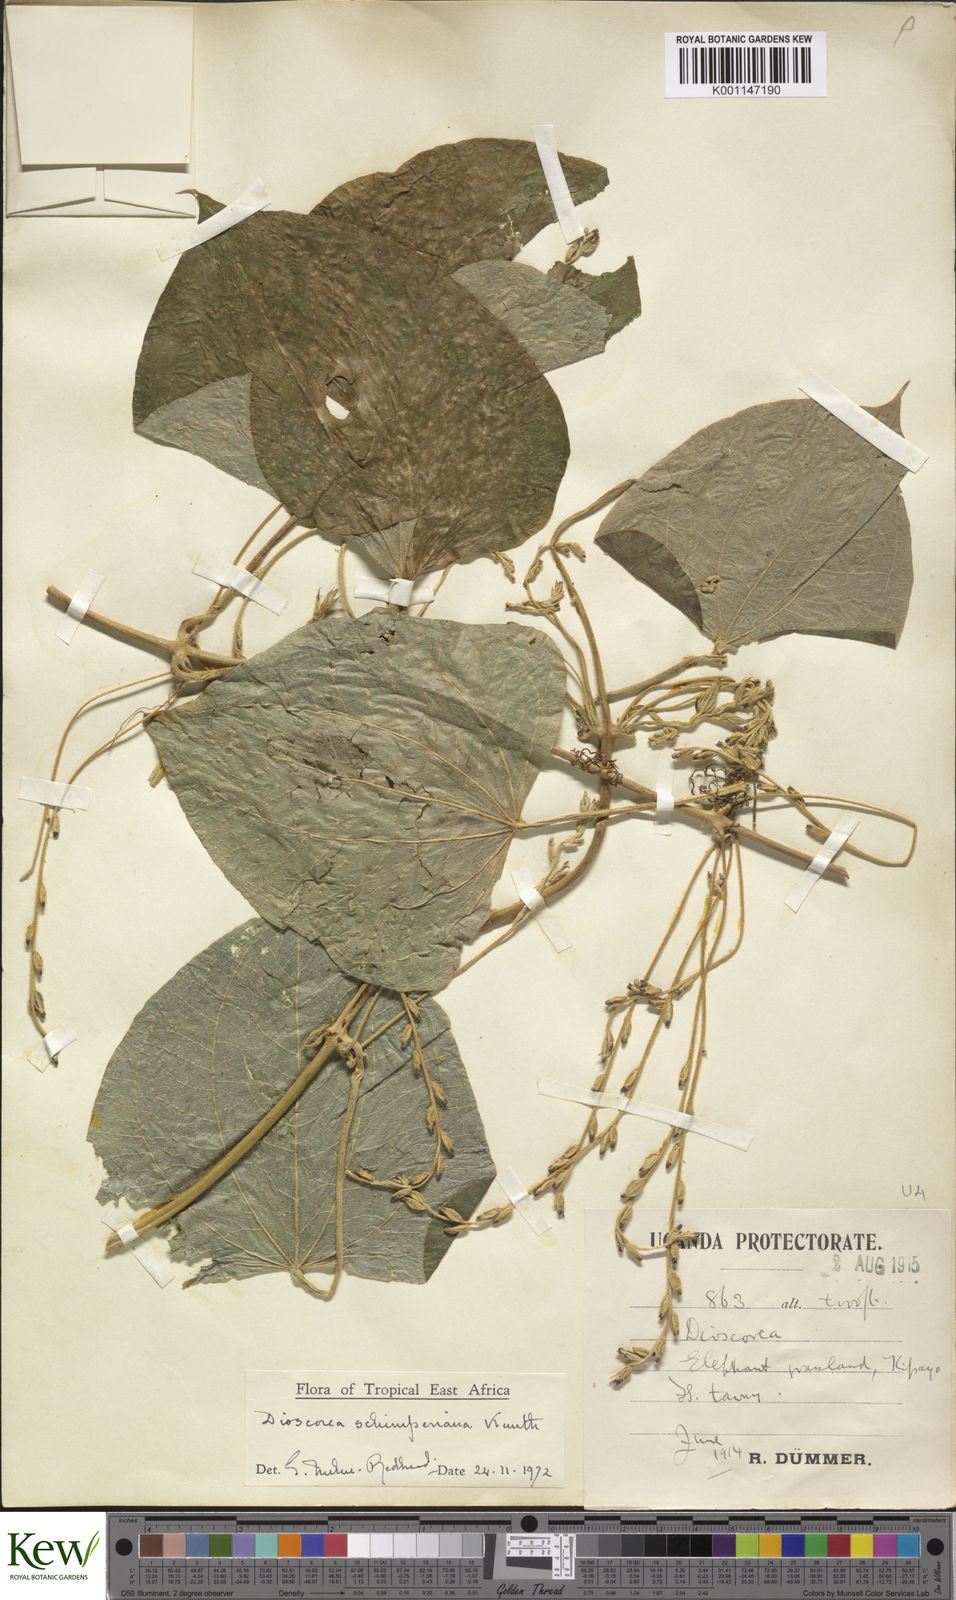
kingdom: Plantae
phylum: Tracheophyta
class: Liliopsida
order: Dioscoreales
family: Dioscoreaceae
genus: Dioscorea
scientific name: Dioscorea schimperiana
